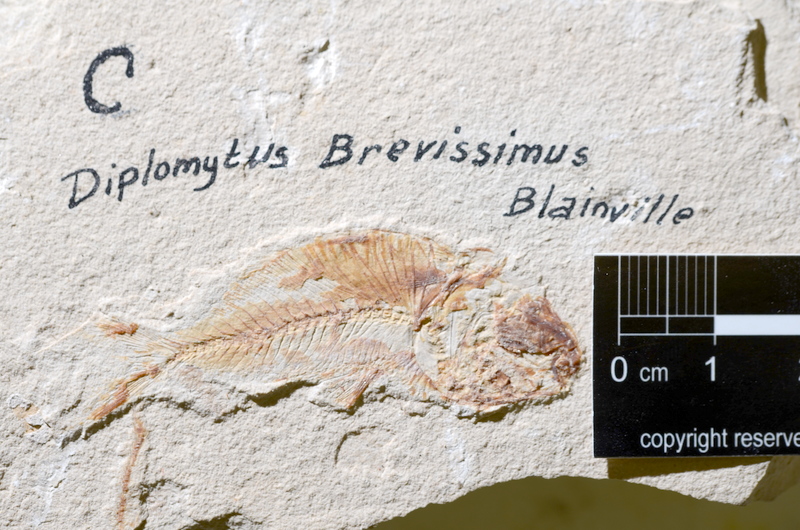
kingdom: Animalia
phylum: Chordata
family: Armigatidae
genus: Armigatus
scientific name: Armigatus Clupea brevissima
